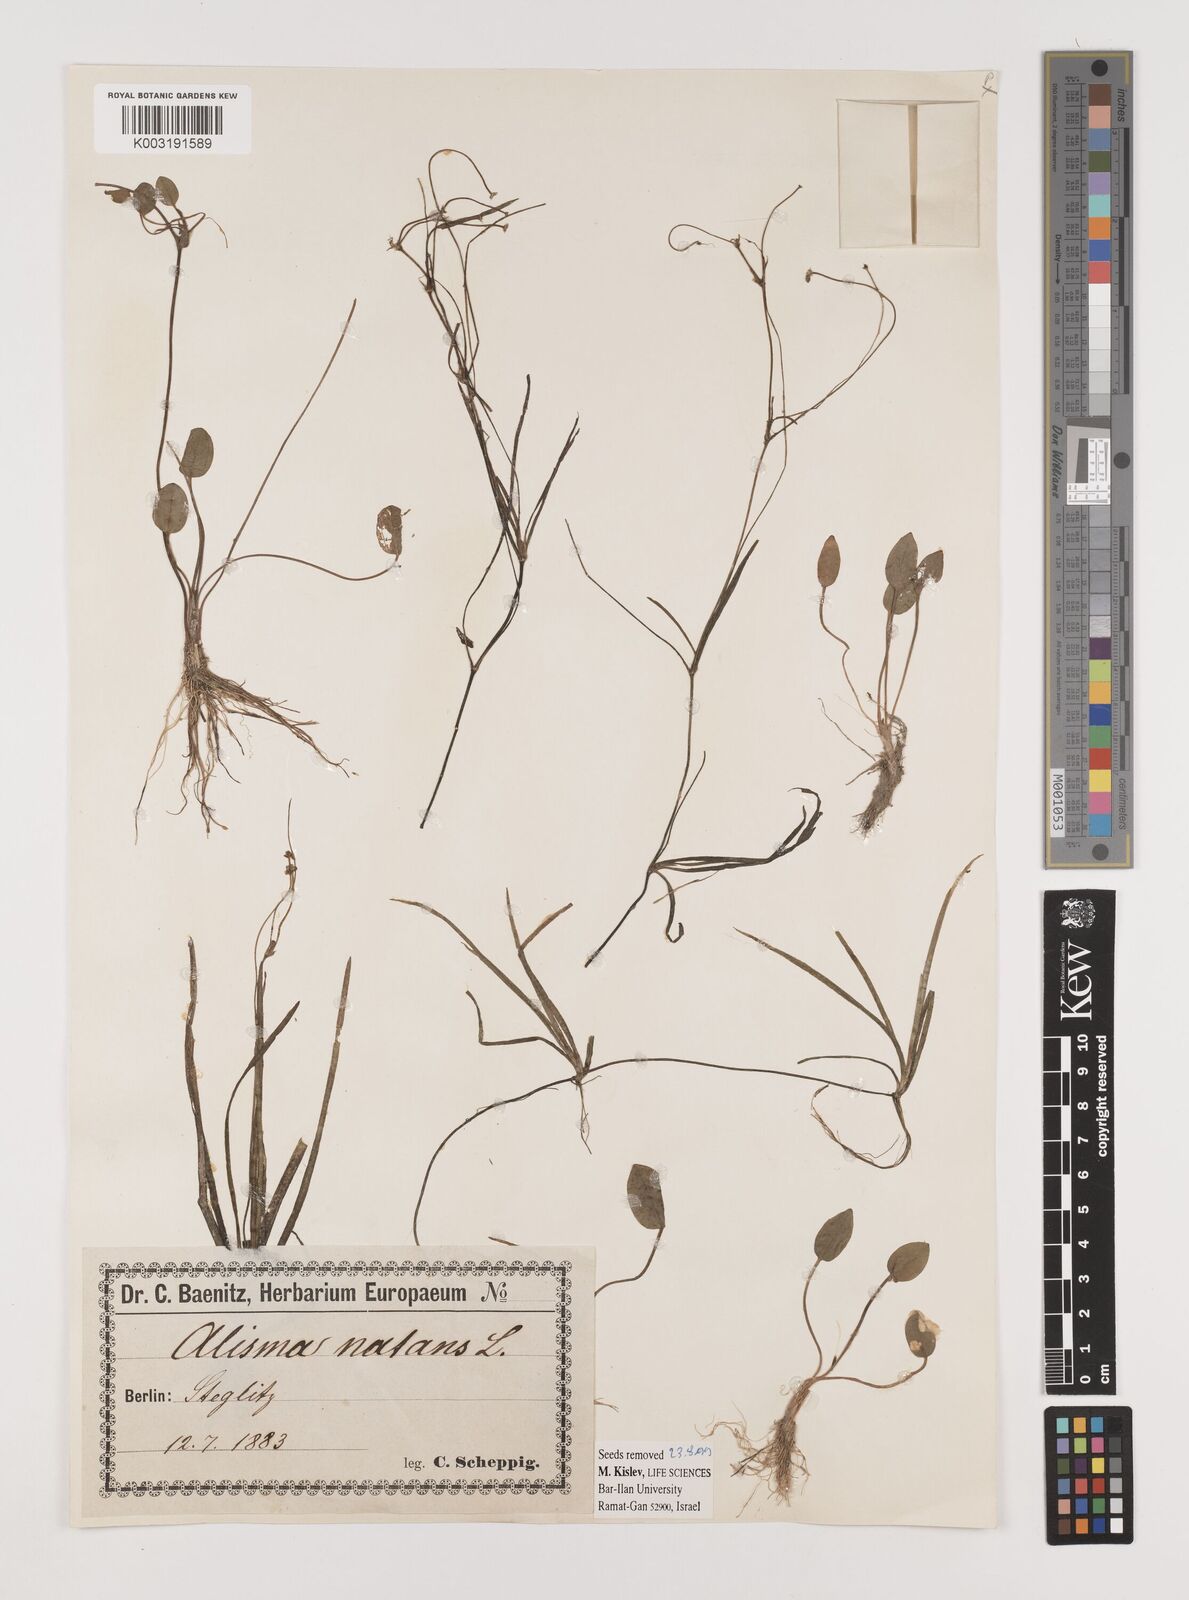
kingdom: Plantae
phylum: Tracheophyta
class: Liliopsida
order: Alismatales
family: Alismataceae
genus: Luronium
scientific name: Luronium natans
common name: Floating water-plantain
